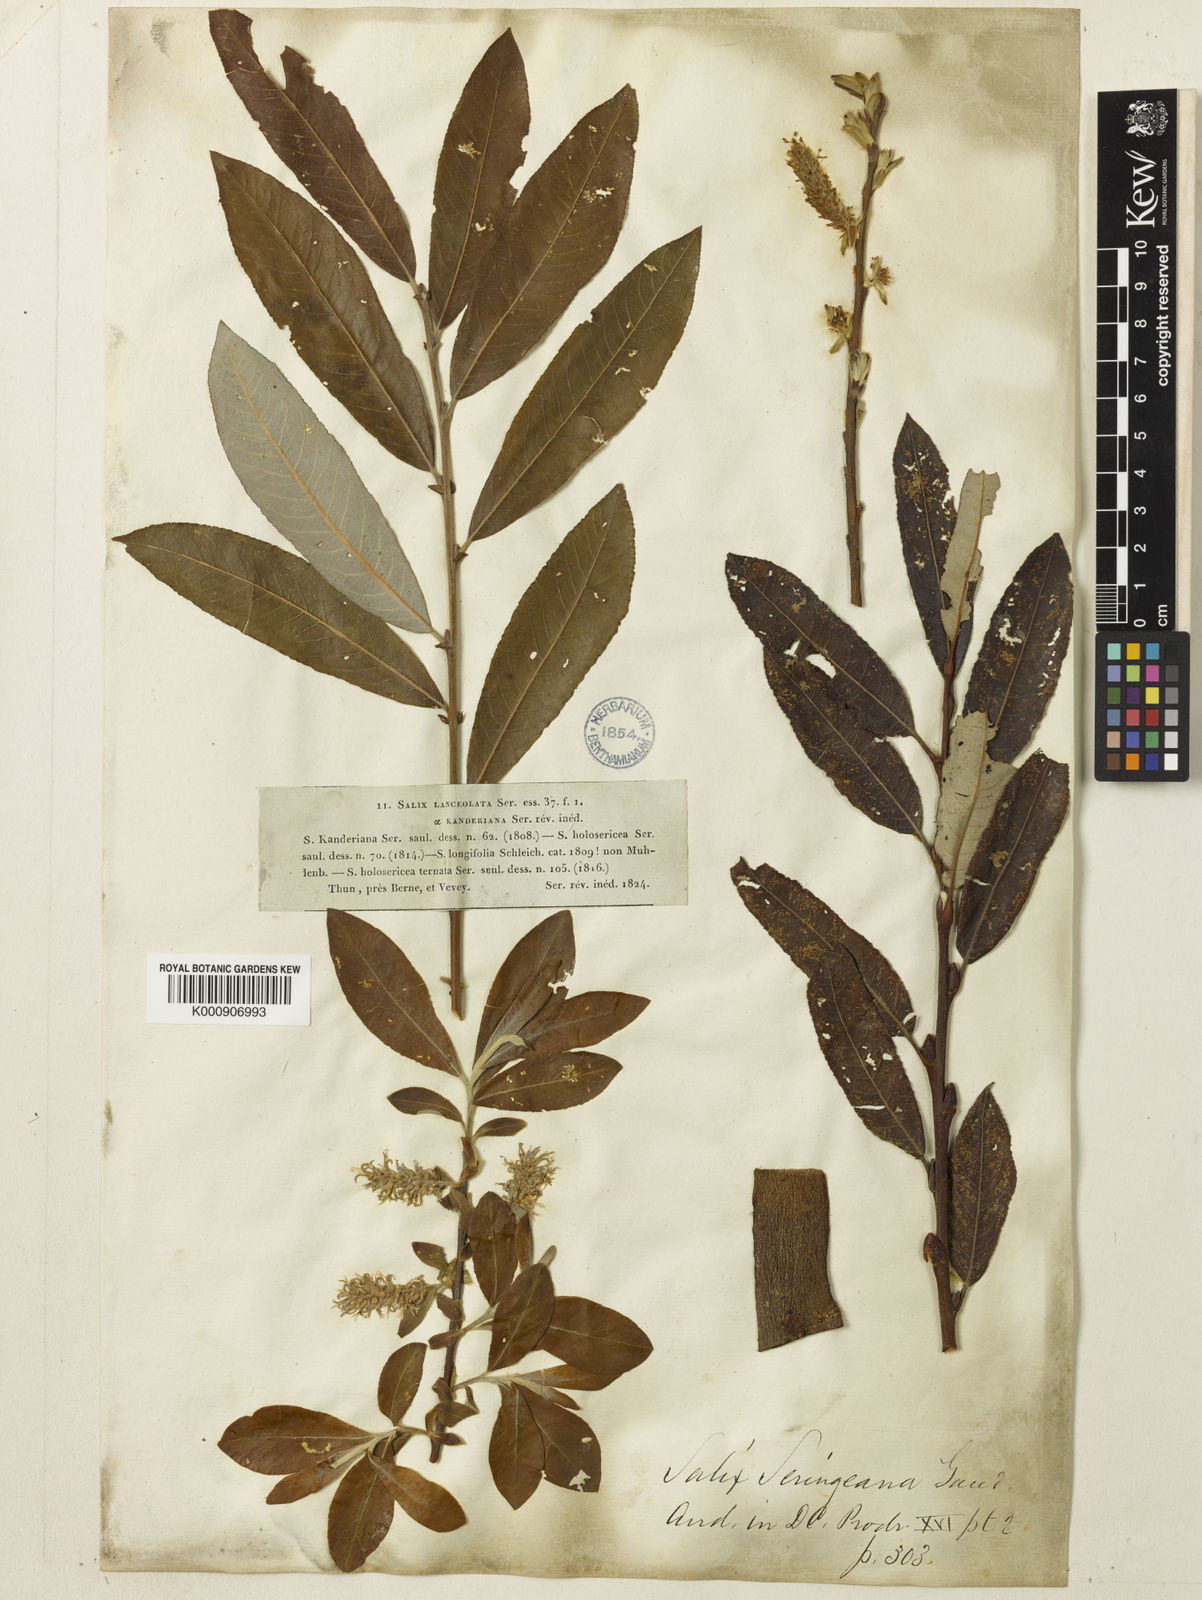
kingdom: Plantae
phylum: Tracheophyta
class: Magnoliopsida
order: Malpighiales
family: Salicaceae
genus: Salix
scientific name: Salix cinerea
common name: Common sallow
